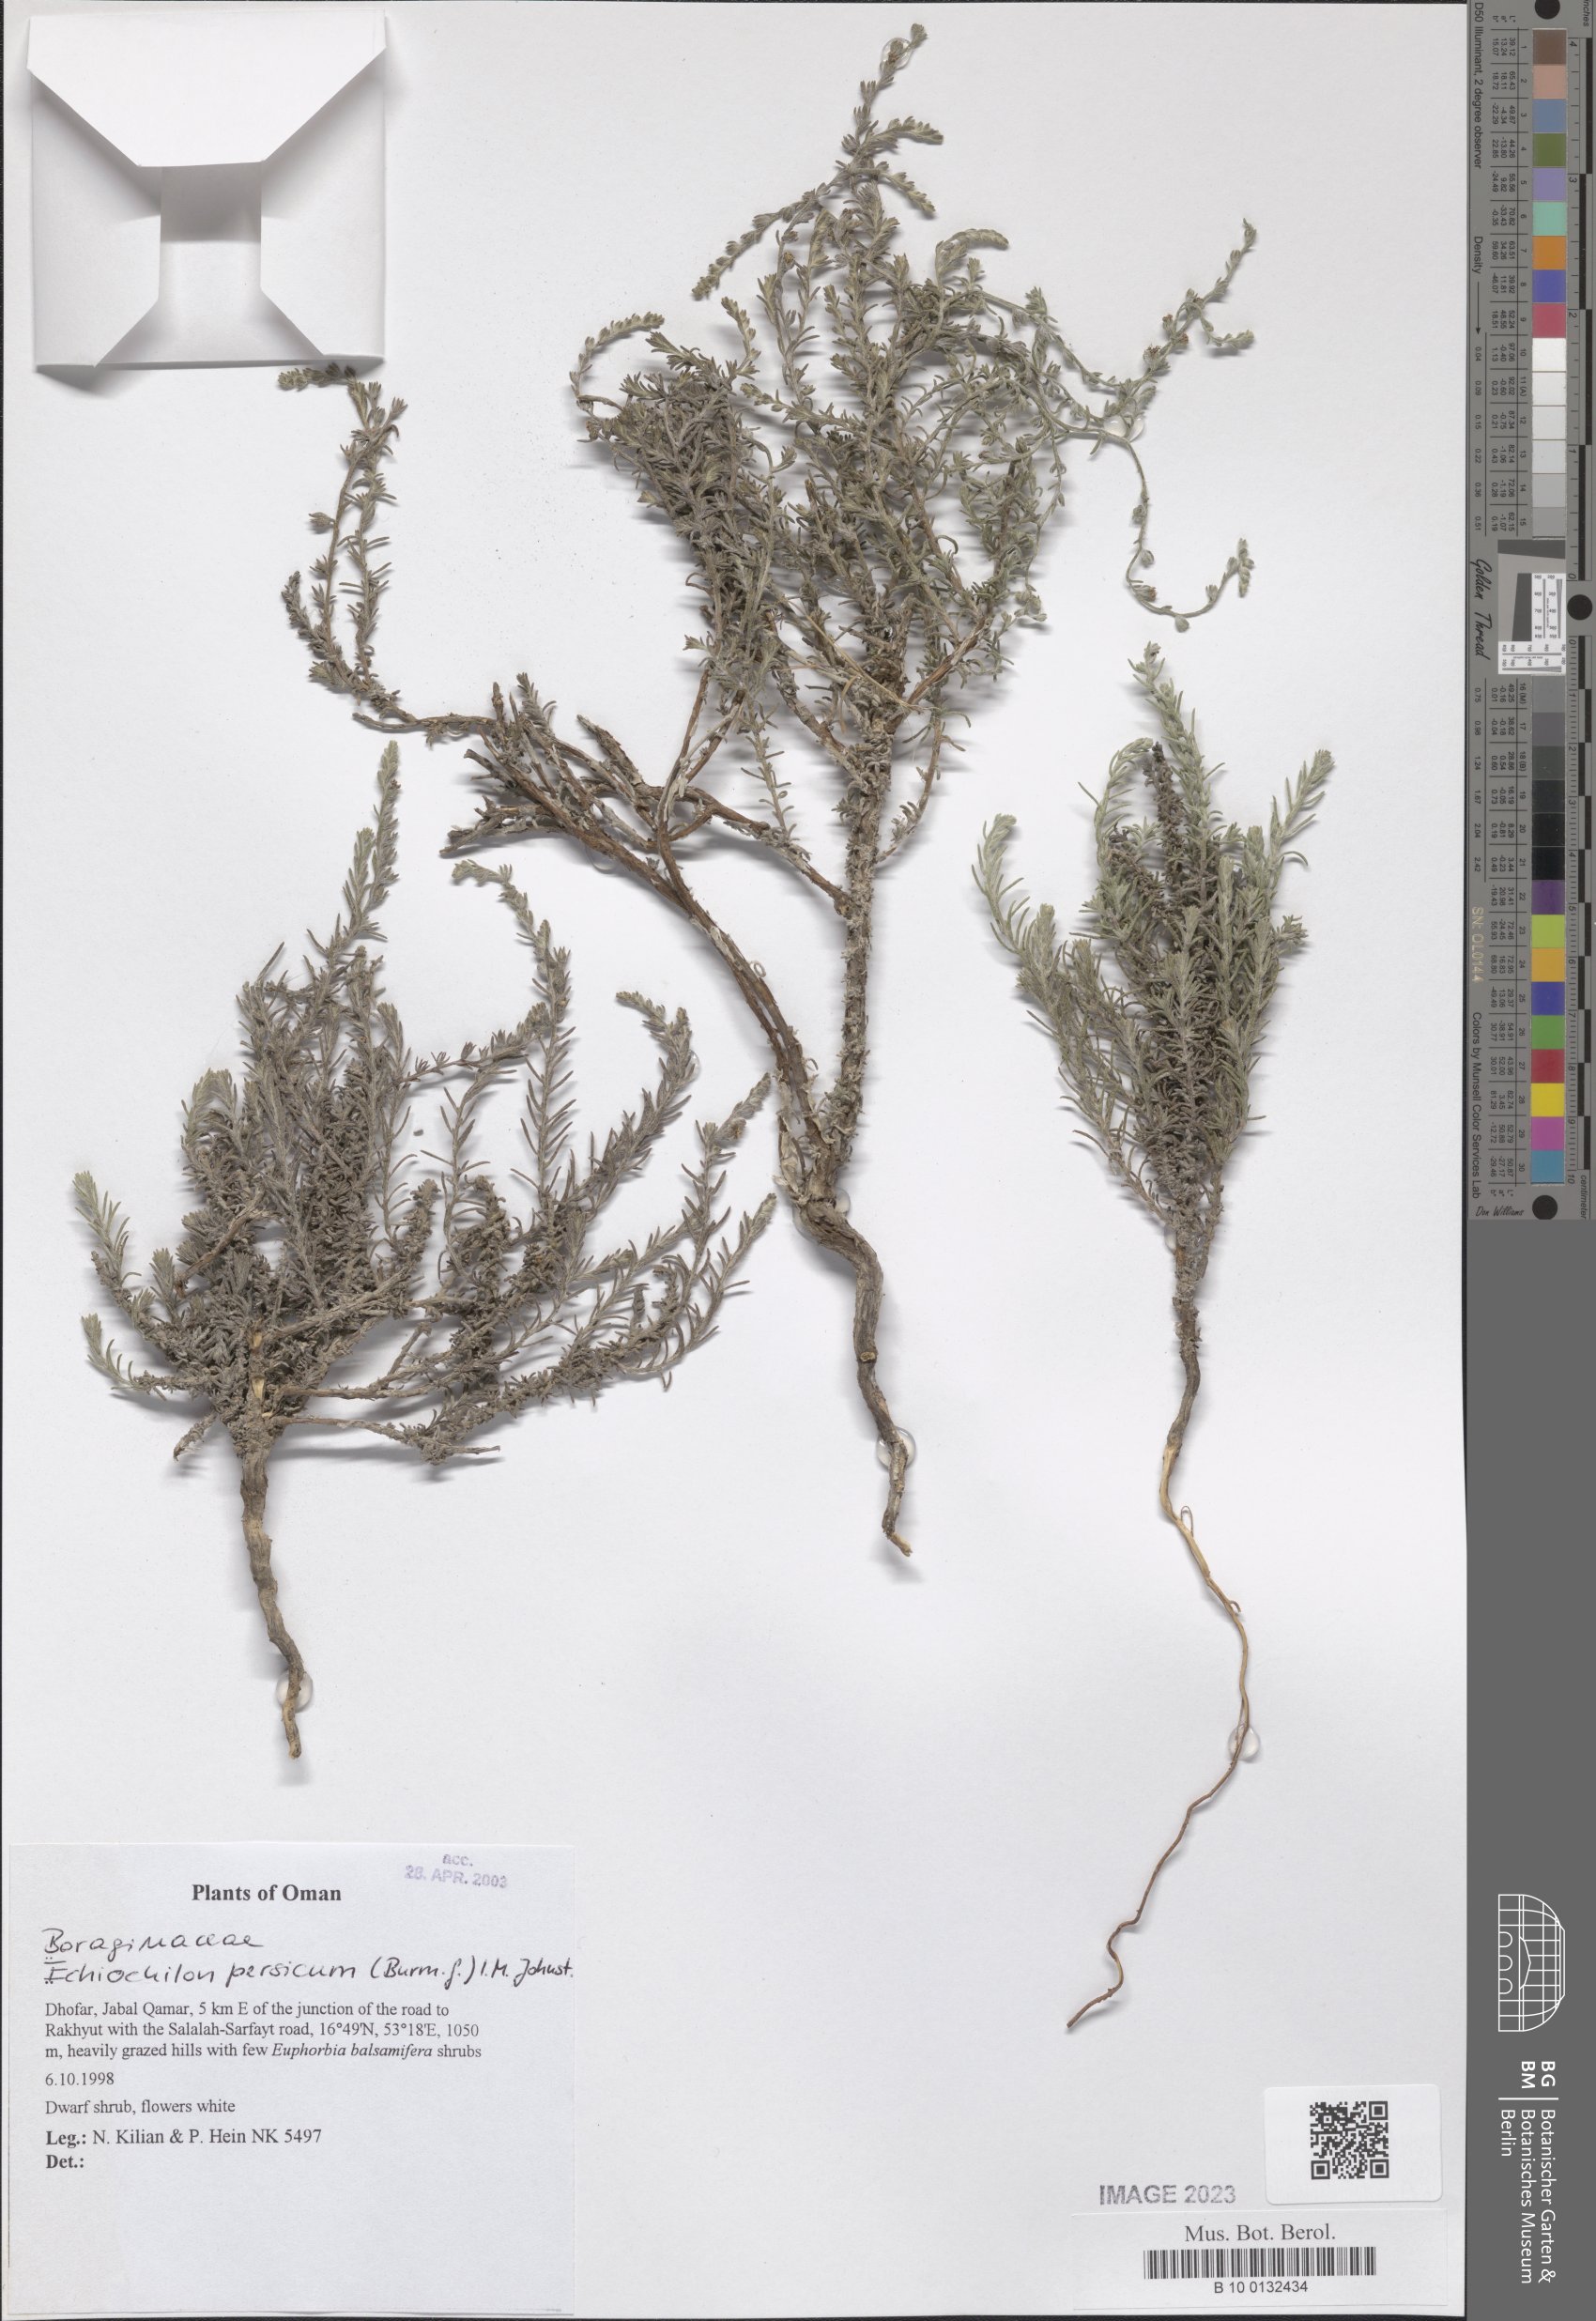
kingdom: Plantae
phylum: Tracheophyta
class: Magnoliopsida
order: Boraginales
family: Boraginaceae
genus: Echiochilon
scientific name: Echiochilon persicum
